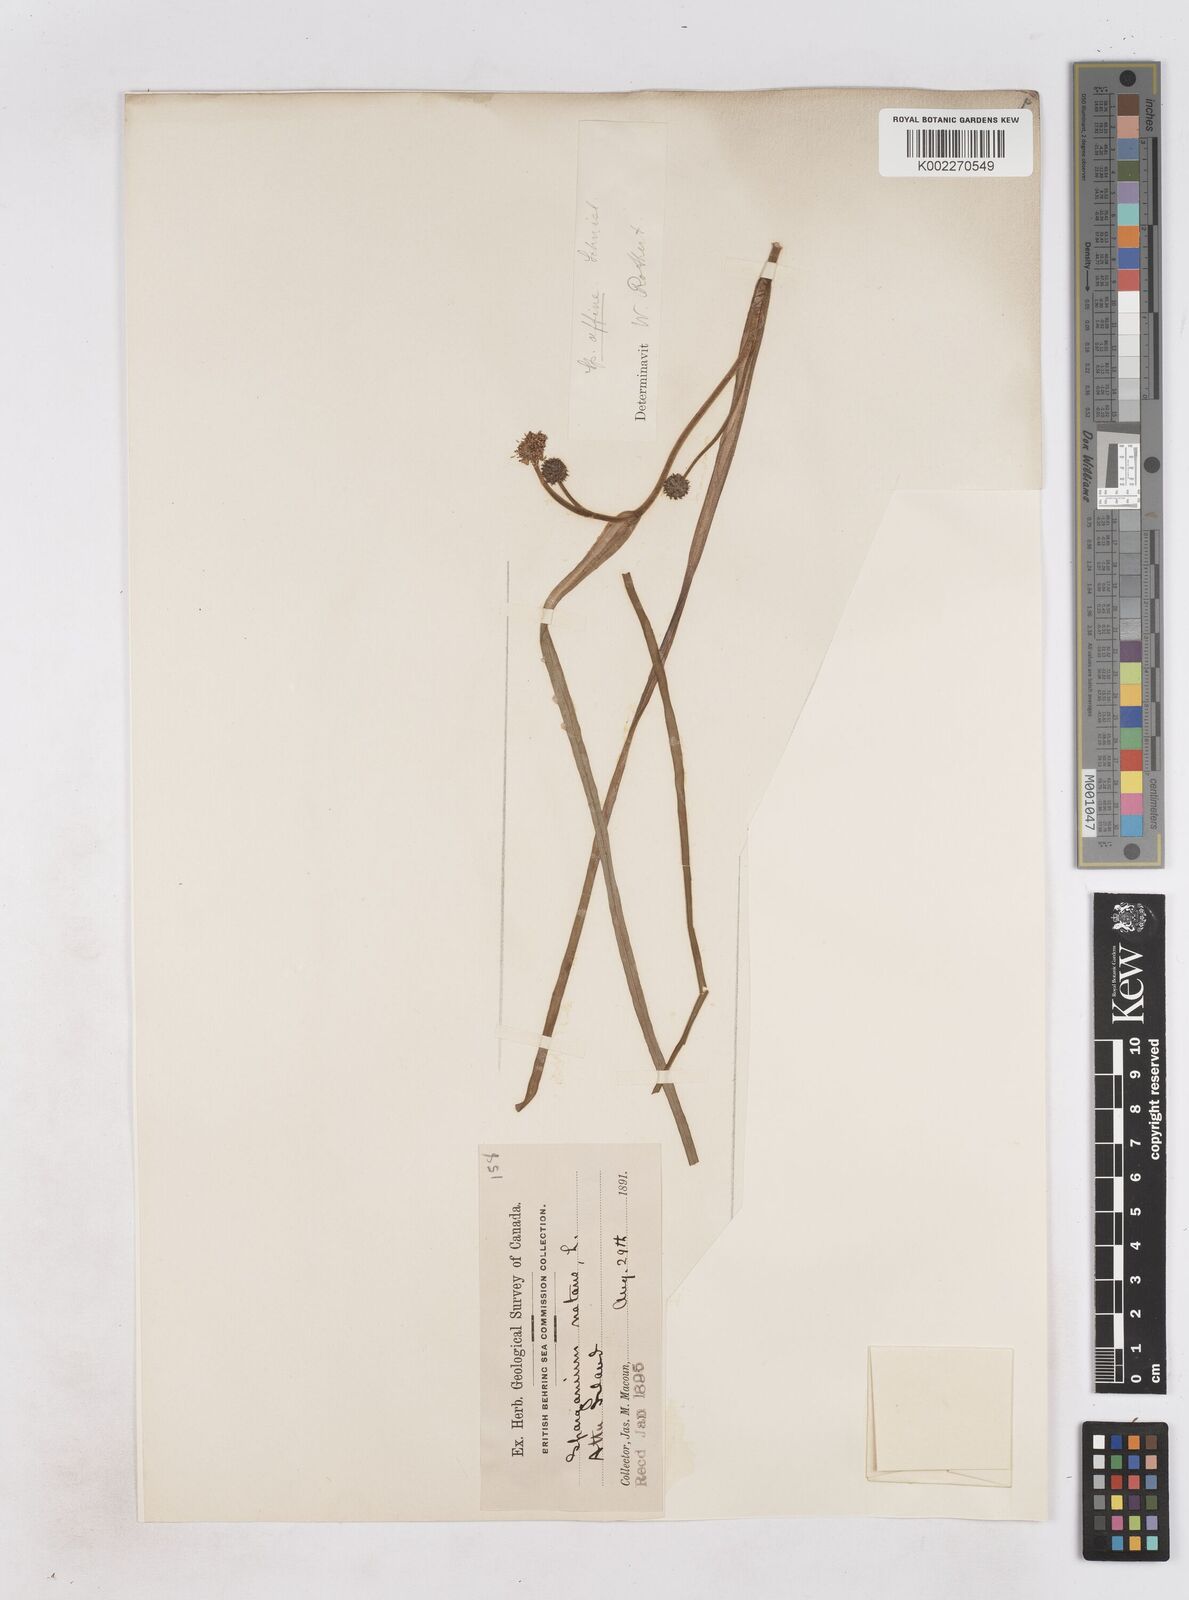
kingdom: Plantae
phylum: Tracheophyta
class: Liliopsida
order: Poales
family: Typhaceae
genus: Sparganium
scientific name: Sparganium angustifolium
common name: Floating bur-reed
